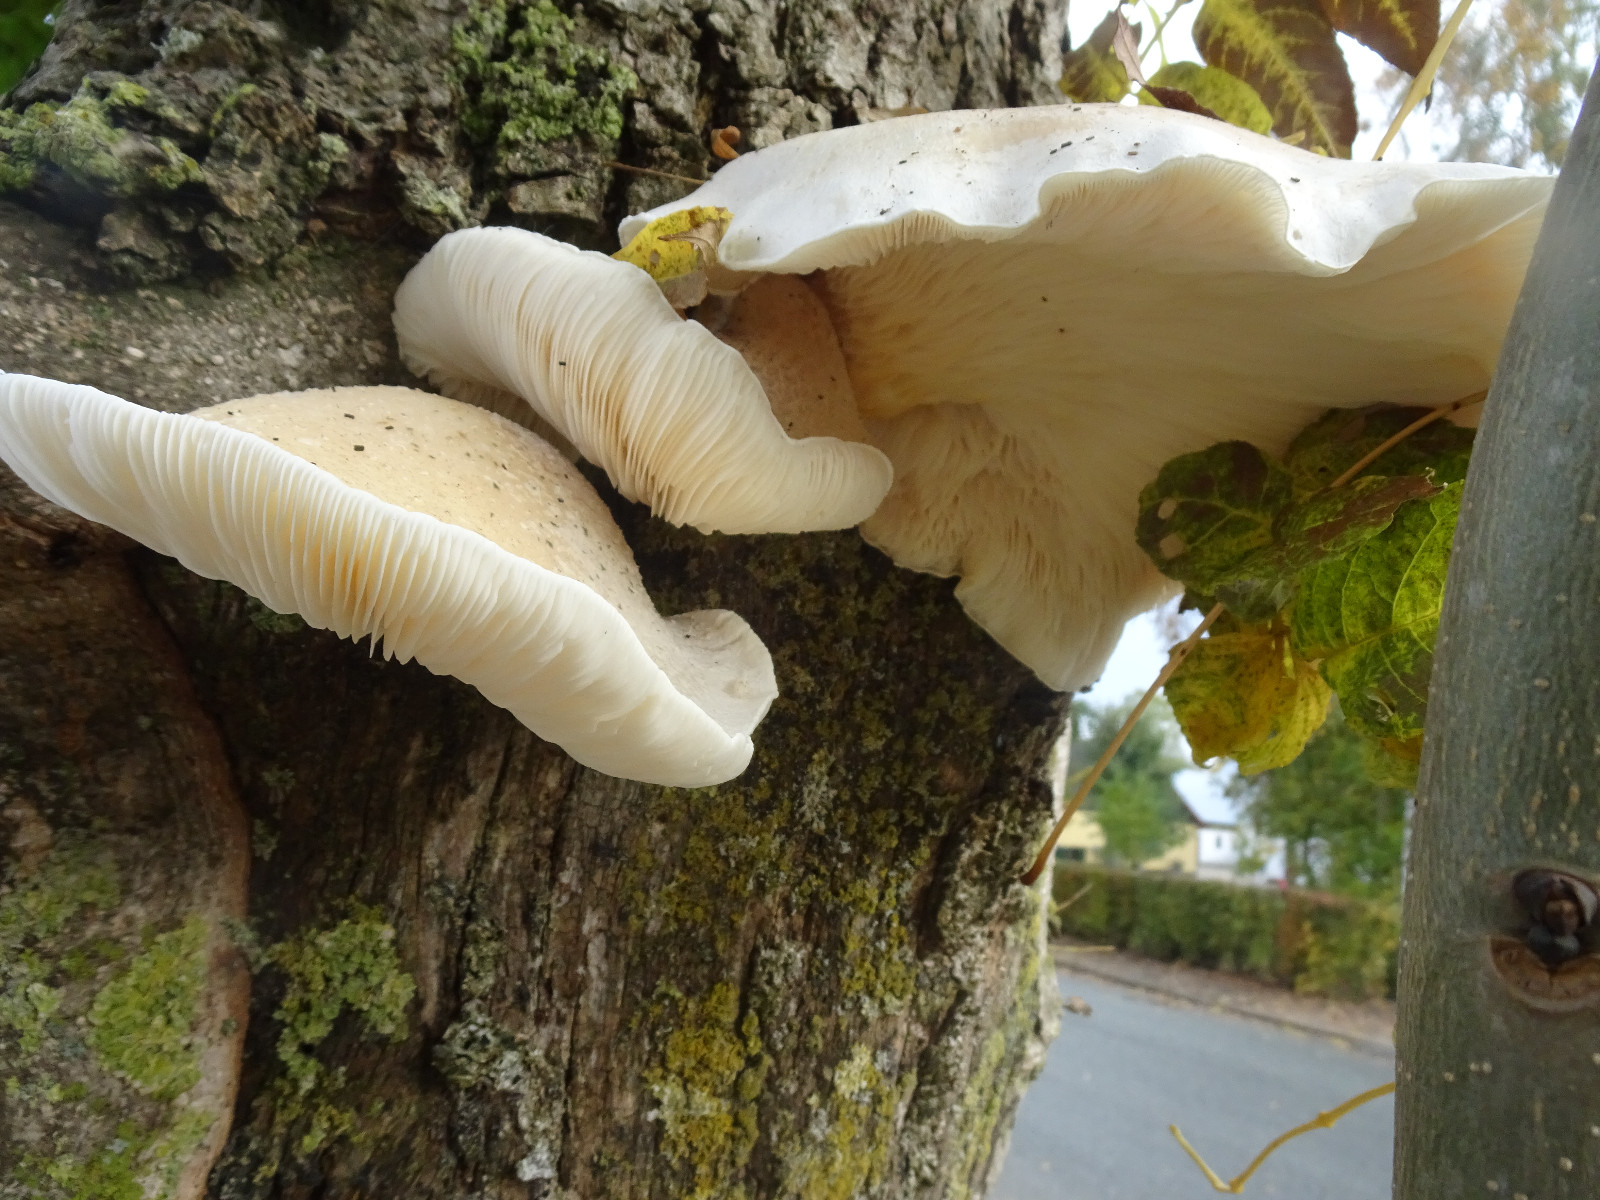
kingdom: Fungi
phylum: Basidiomycota
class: Agaricomycetes
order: Agaricales
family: Pleurotaceae
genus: Pleurotus
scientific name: Pleurotus dryinus
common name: korkagtig østershat
